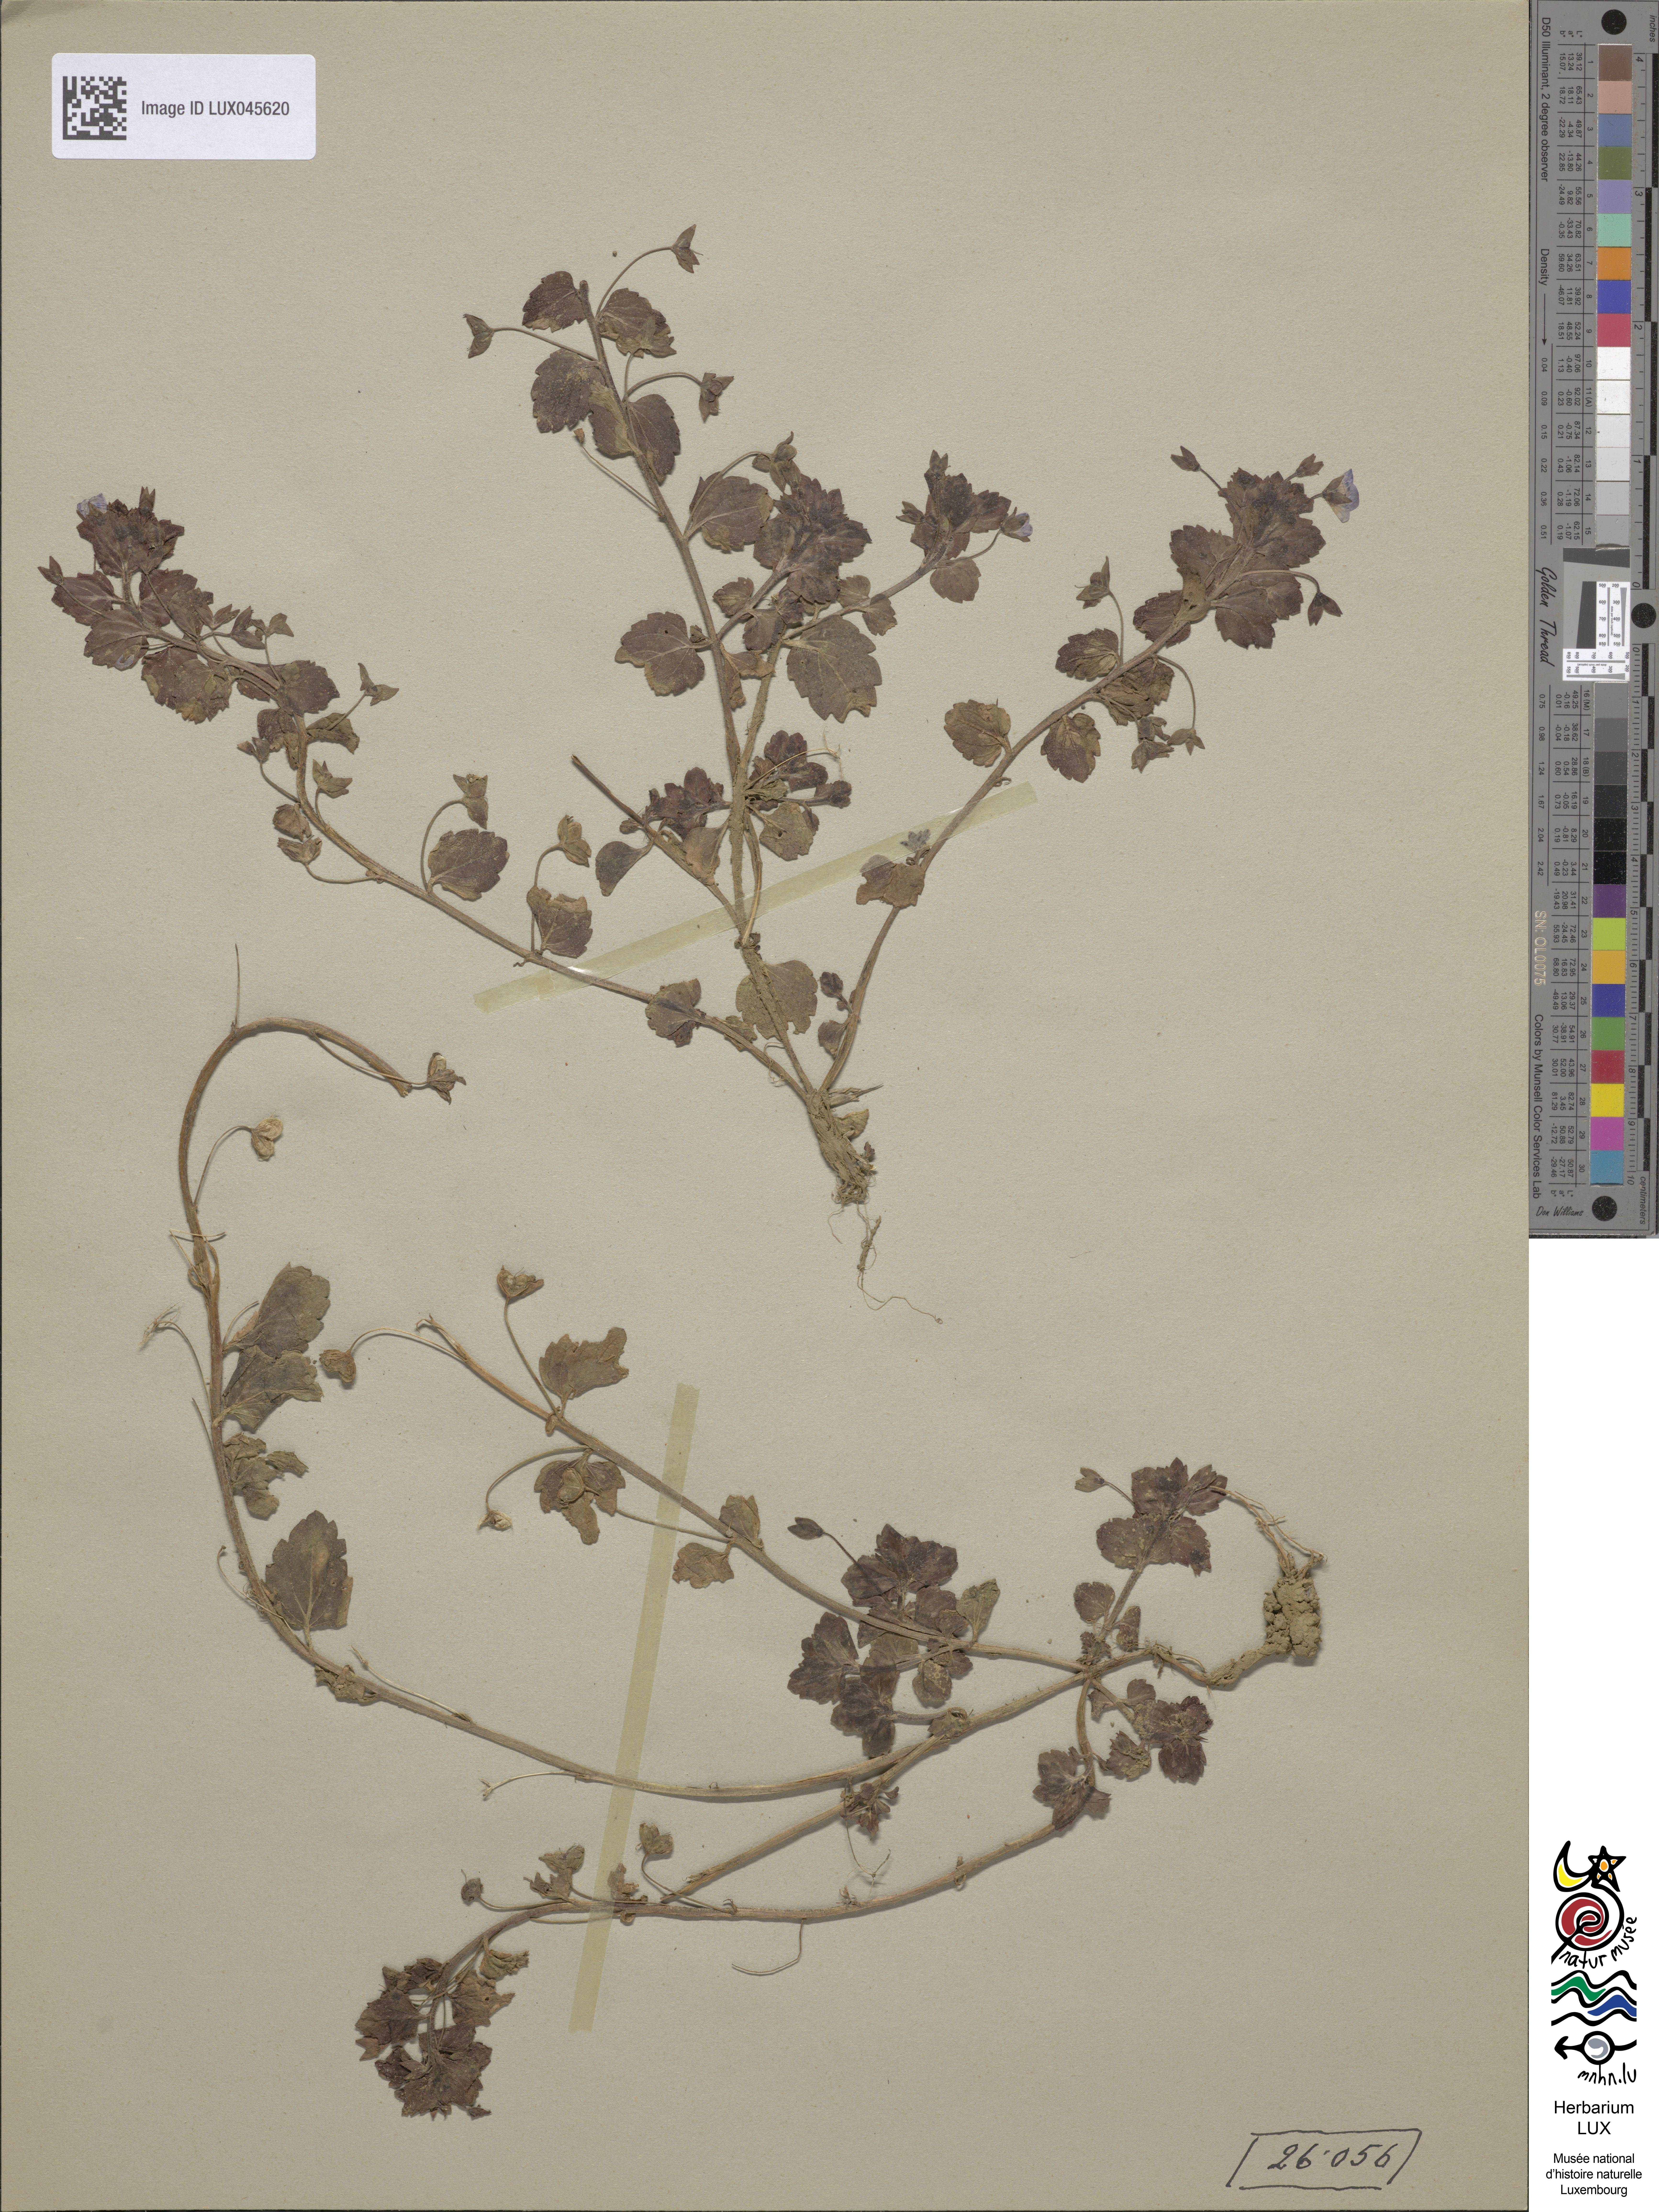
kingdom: Plantae
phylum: Tracheophyta
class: Magnoliopsida
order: Lamiales
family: Plantaginaceae
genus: Veronica
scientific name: Veronica persica
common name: Common field-speedwell
